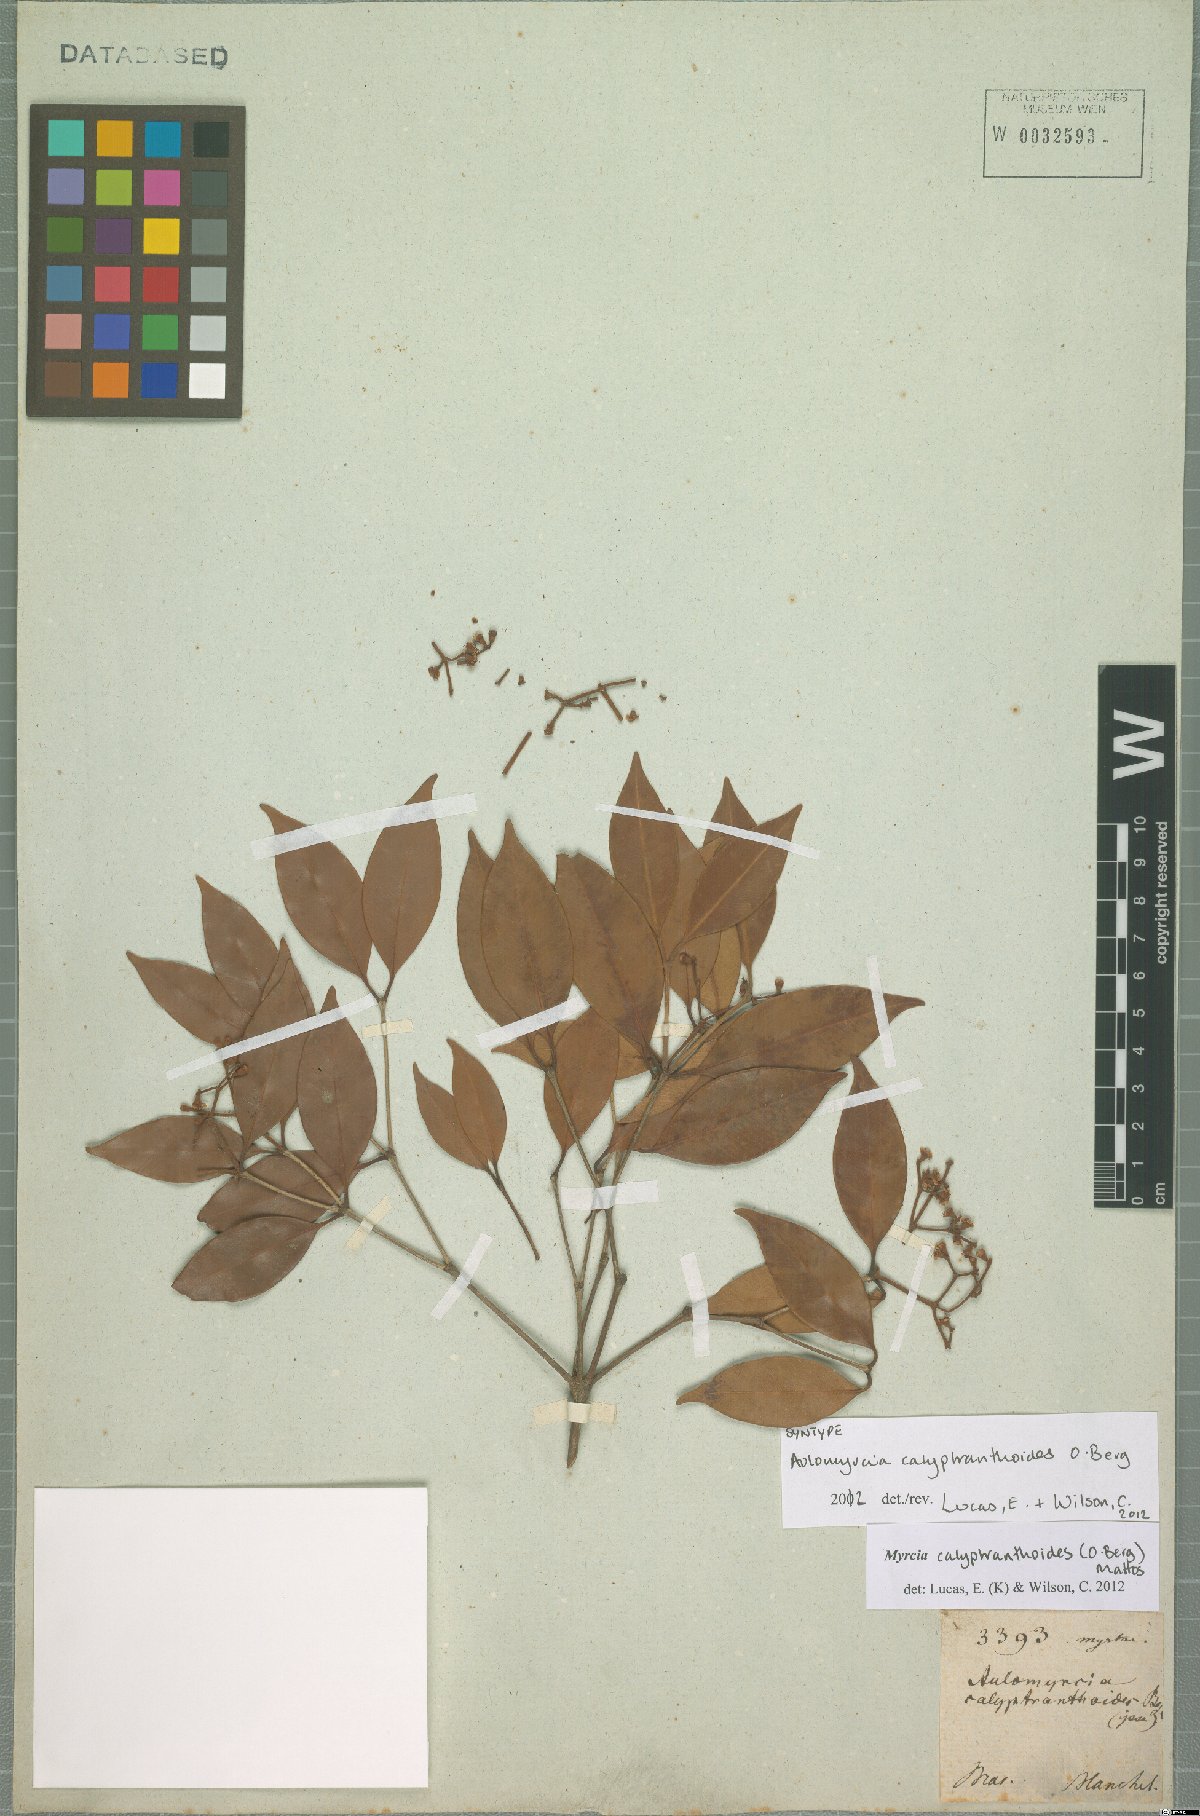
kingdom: Plantae
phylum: Tracheophyta
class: Magnoliopsida
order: Myrtales
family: Myrtaceae
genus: Myrcia
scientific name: Myrcia calyptranthoides
